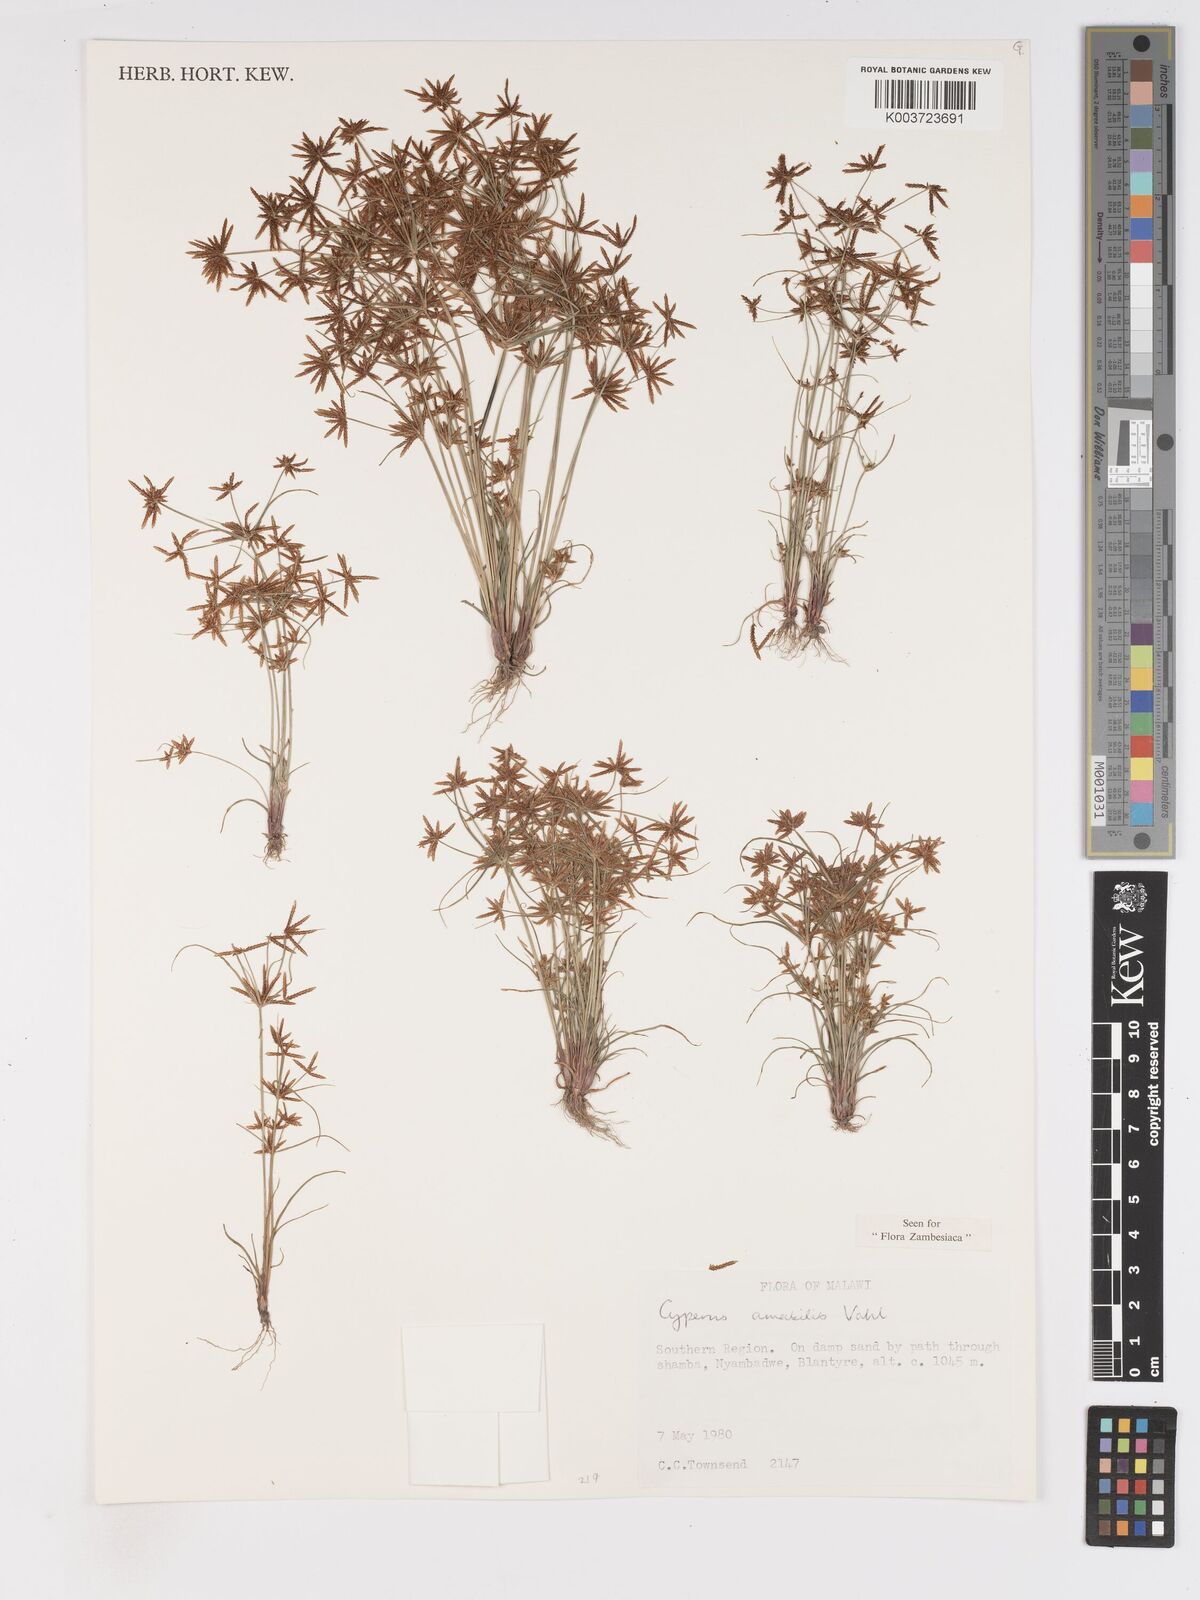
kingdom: Plantae
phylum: Tracheophyta
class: Liliopsida
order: Poales
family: Cyperaceae
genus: Cyperus
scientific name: Cyperus amabilis
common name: Foothill flat sedge
